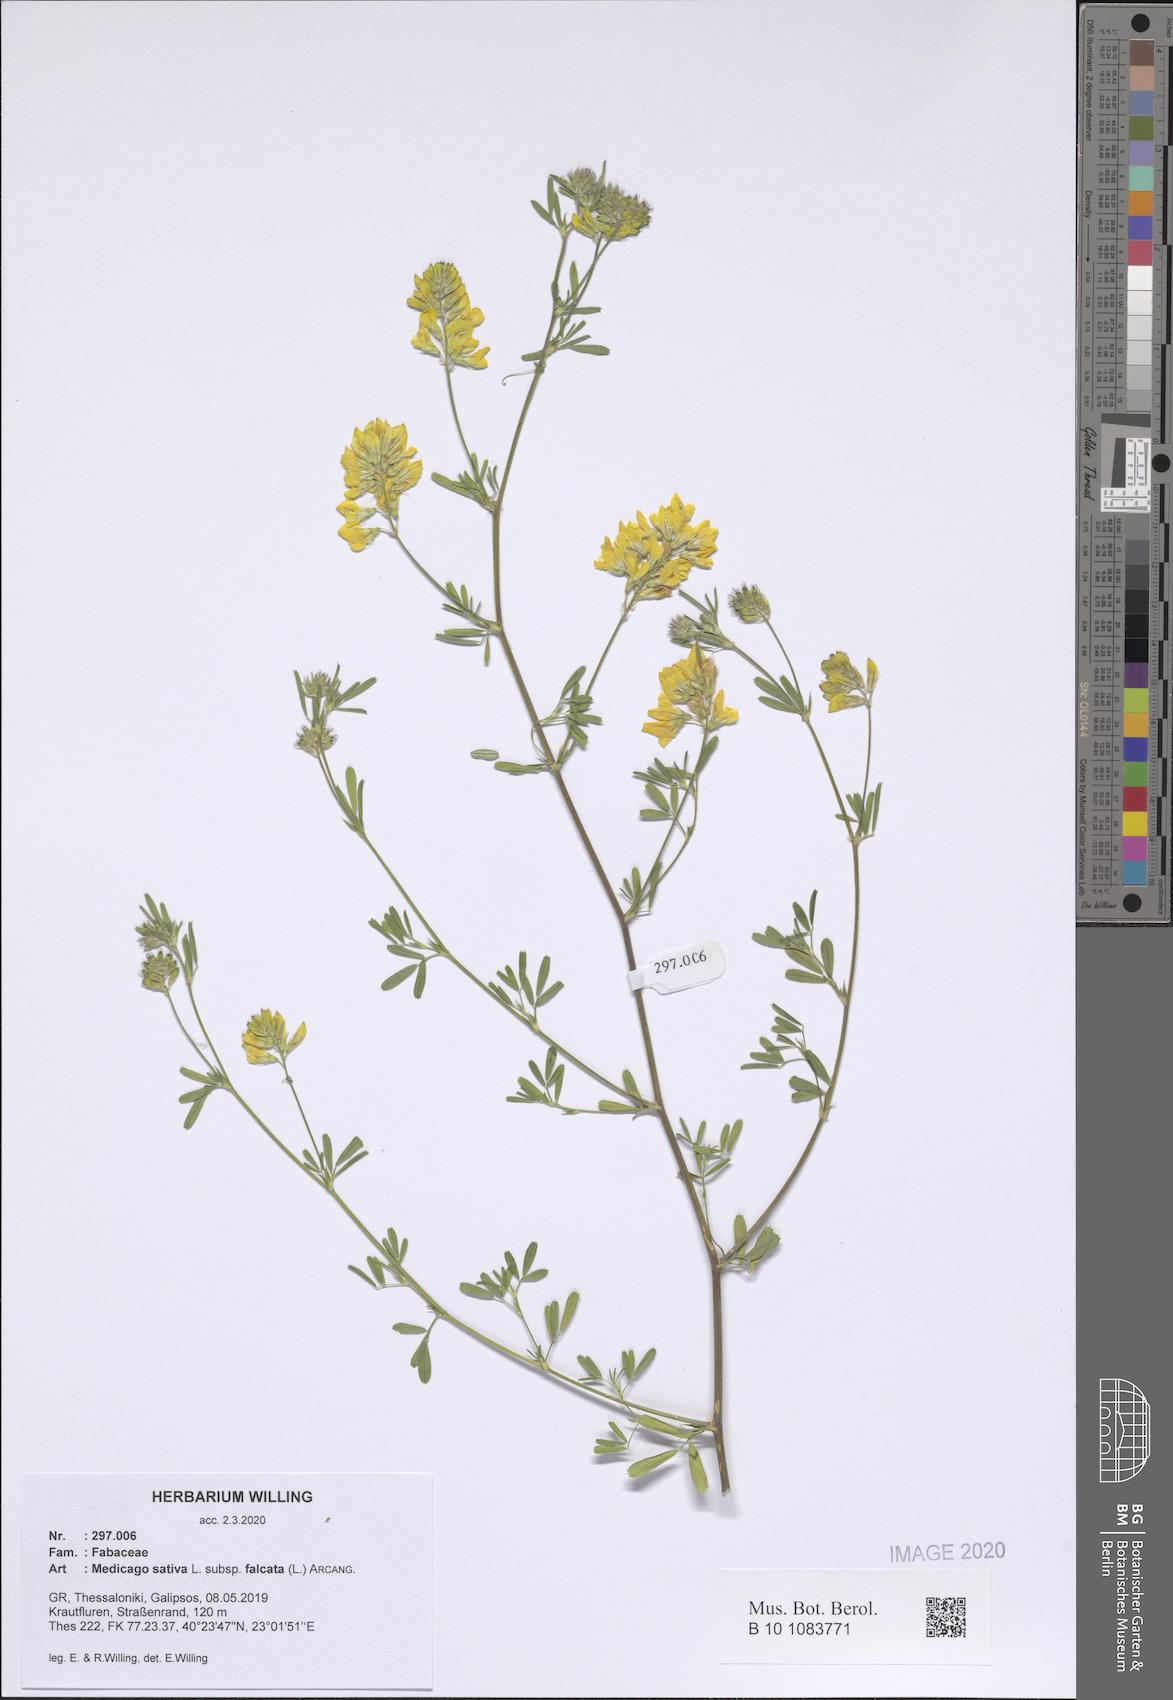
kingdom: Plantae
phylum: Tracheophyta
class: Magnoliopsida
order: Fabales
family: Fabaceae
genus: Medicago
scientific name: Medicago falcata
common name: Sickle medick
